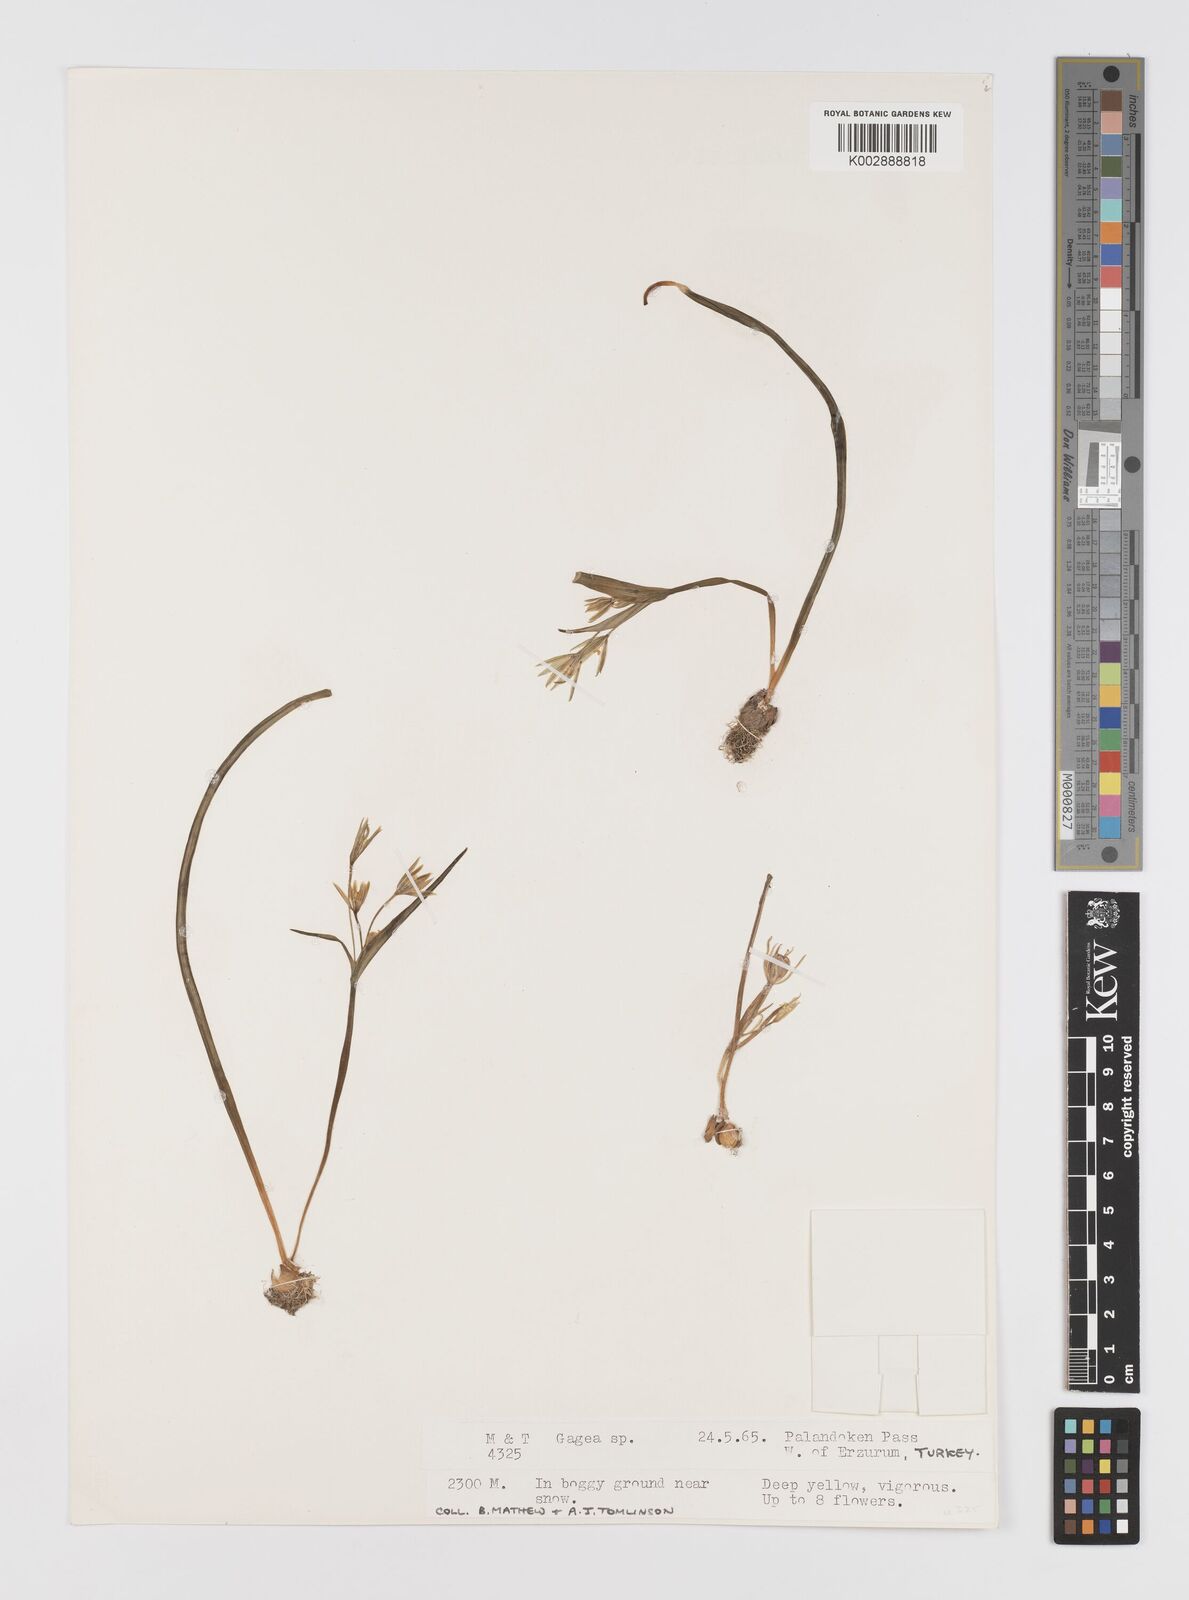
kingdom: Plantae
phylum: Tracheophyta
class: Liliopsida
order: Liliales
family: Liliaceae
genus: Gagea
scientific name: Gagea
